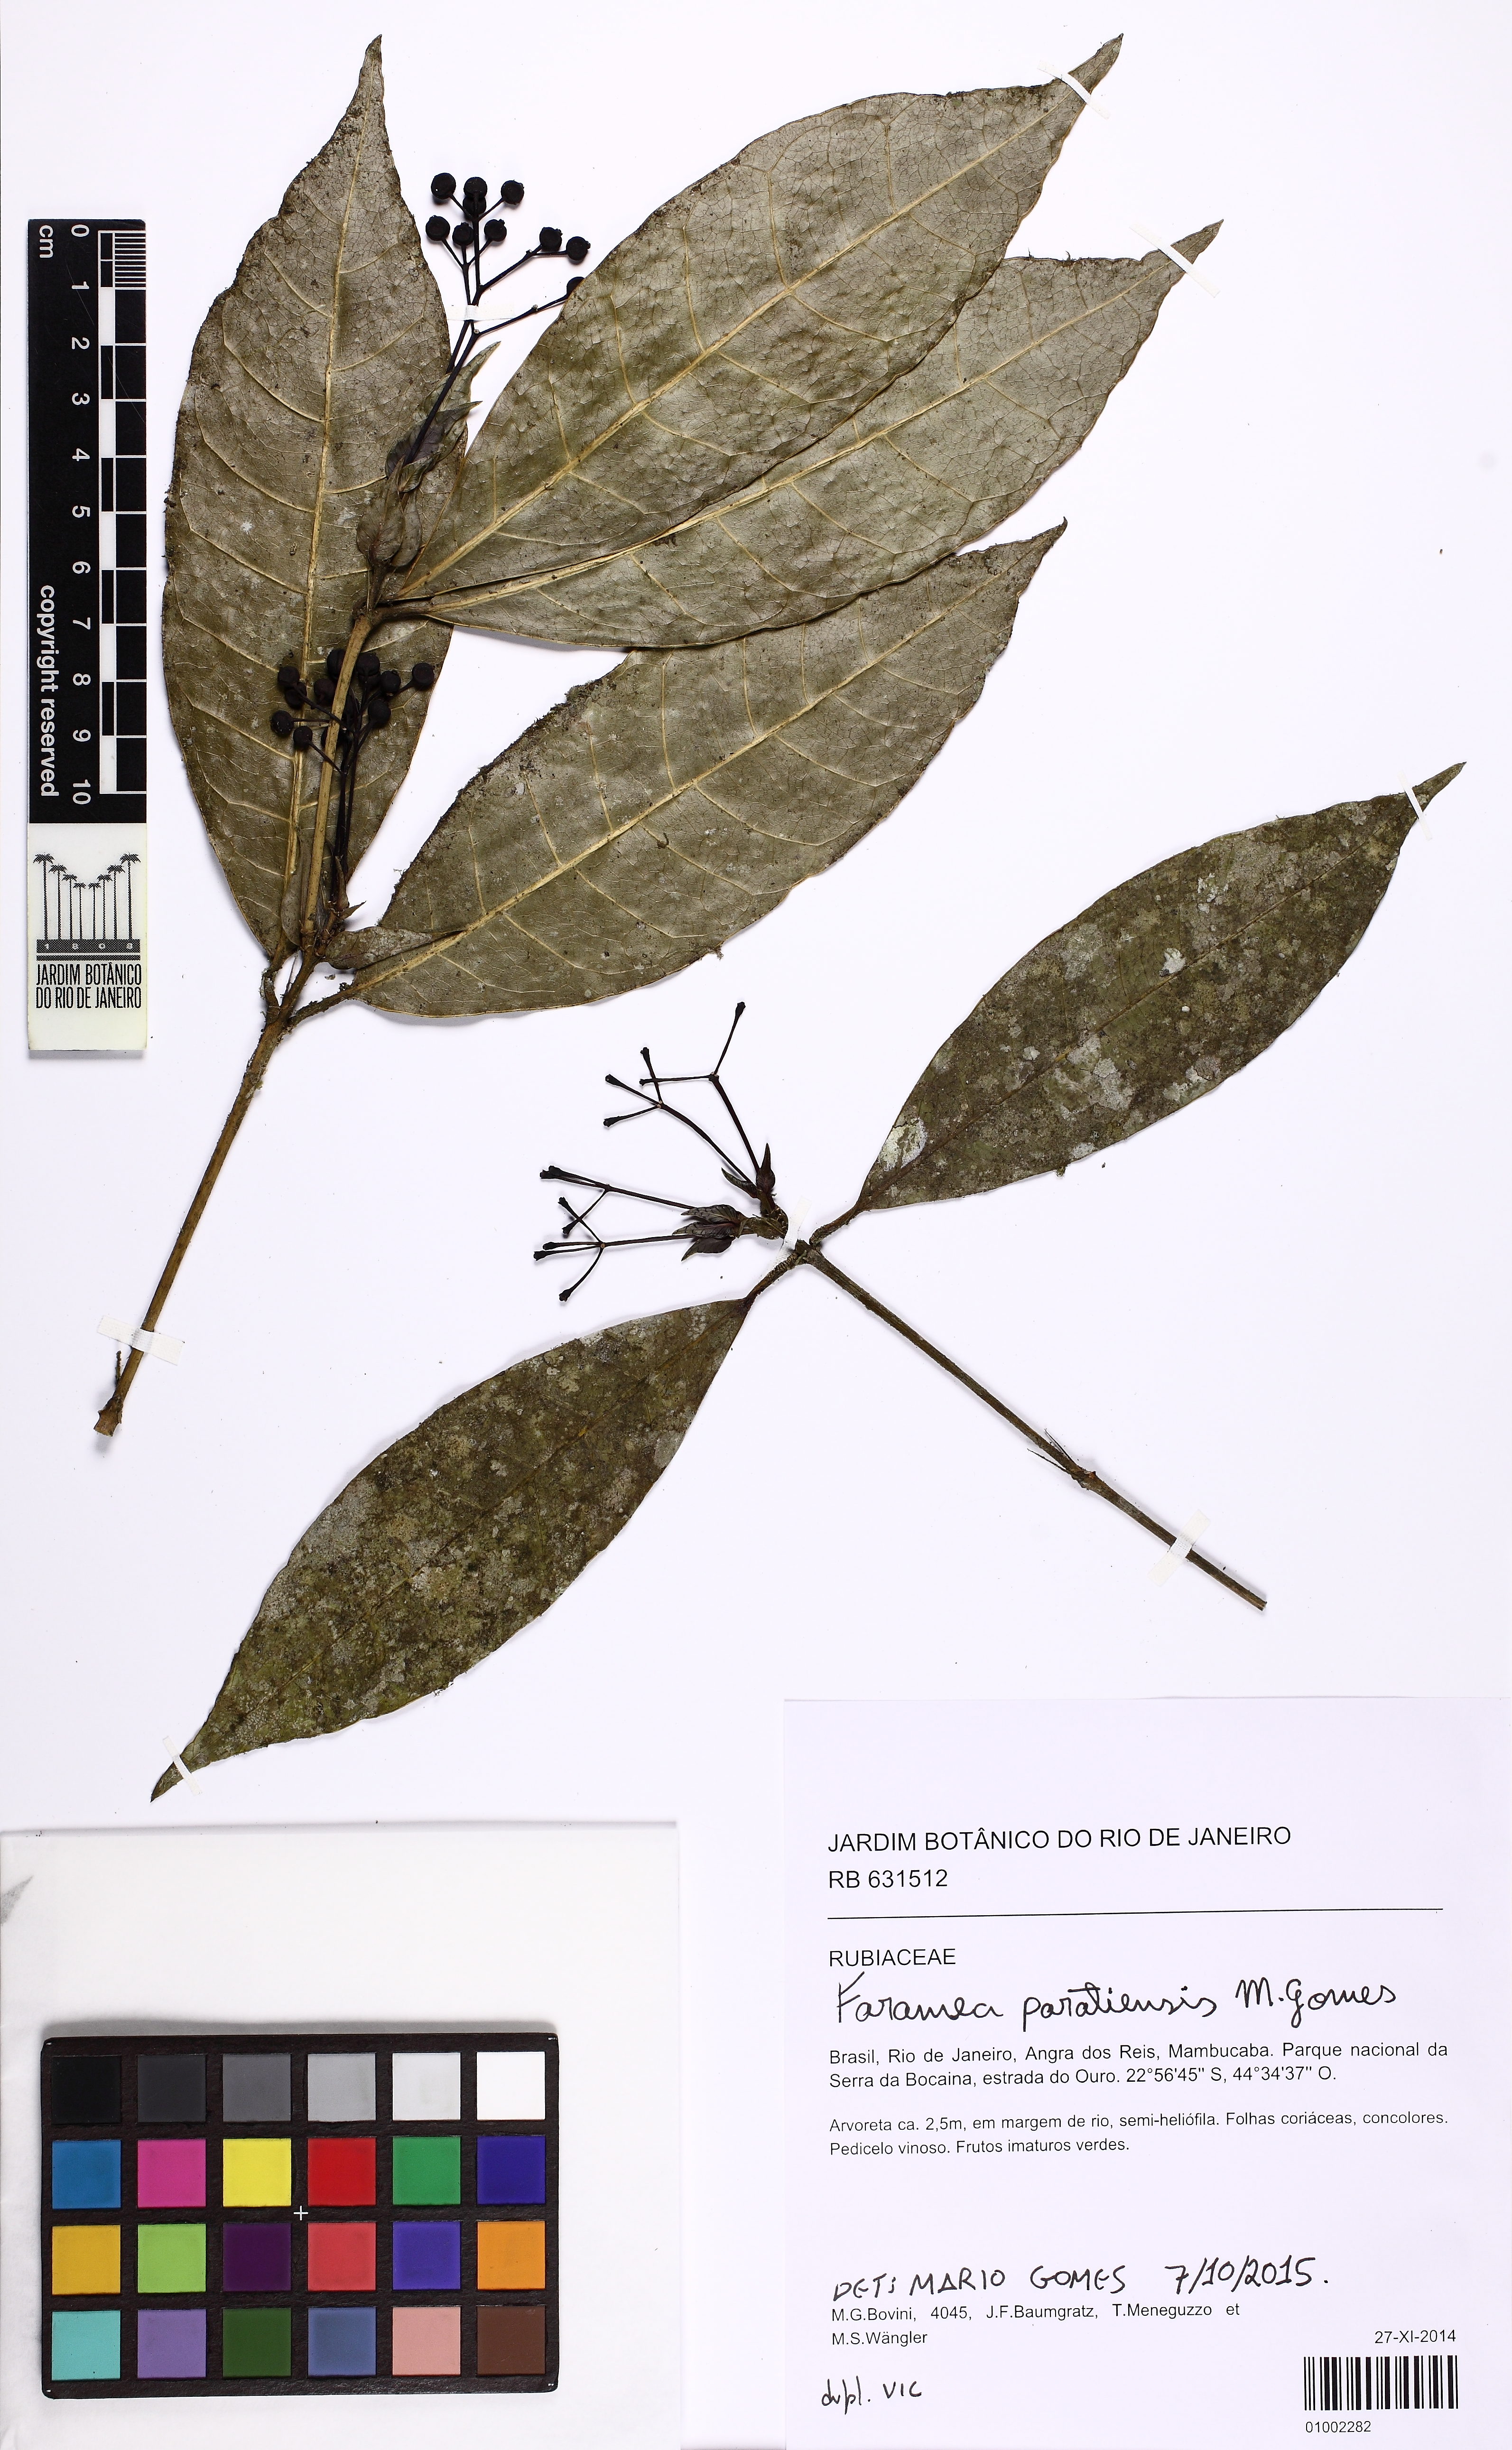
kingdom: Plantae
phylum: Tracheophyta
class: Magnoliopsida
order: Gentianales
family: Rubiaceae
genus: Faramea
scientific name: Faramea paratiensis
